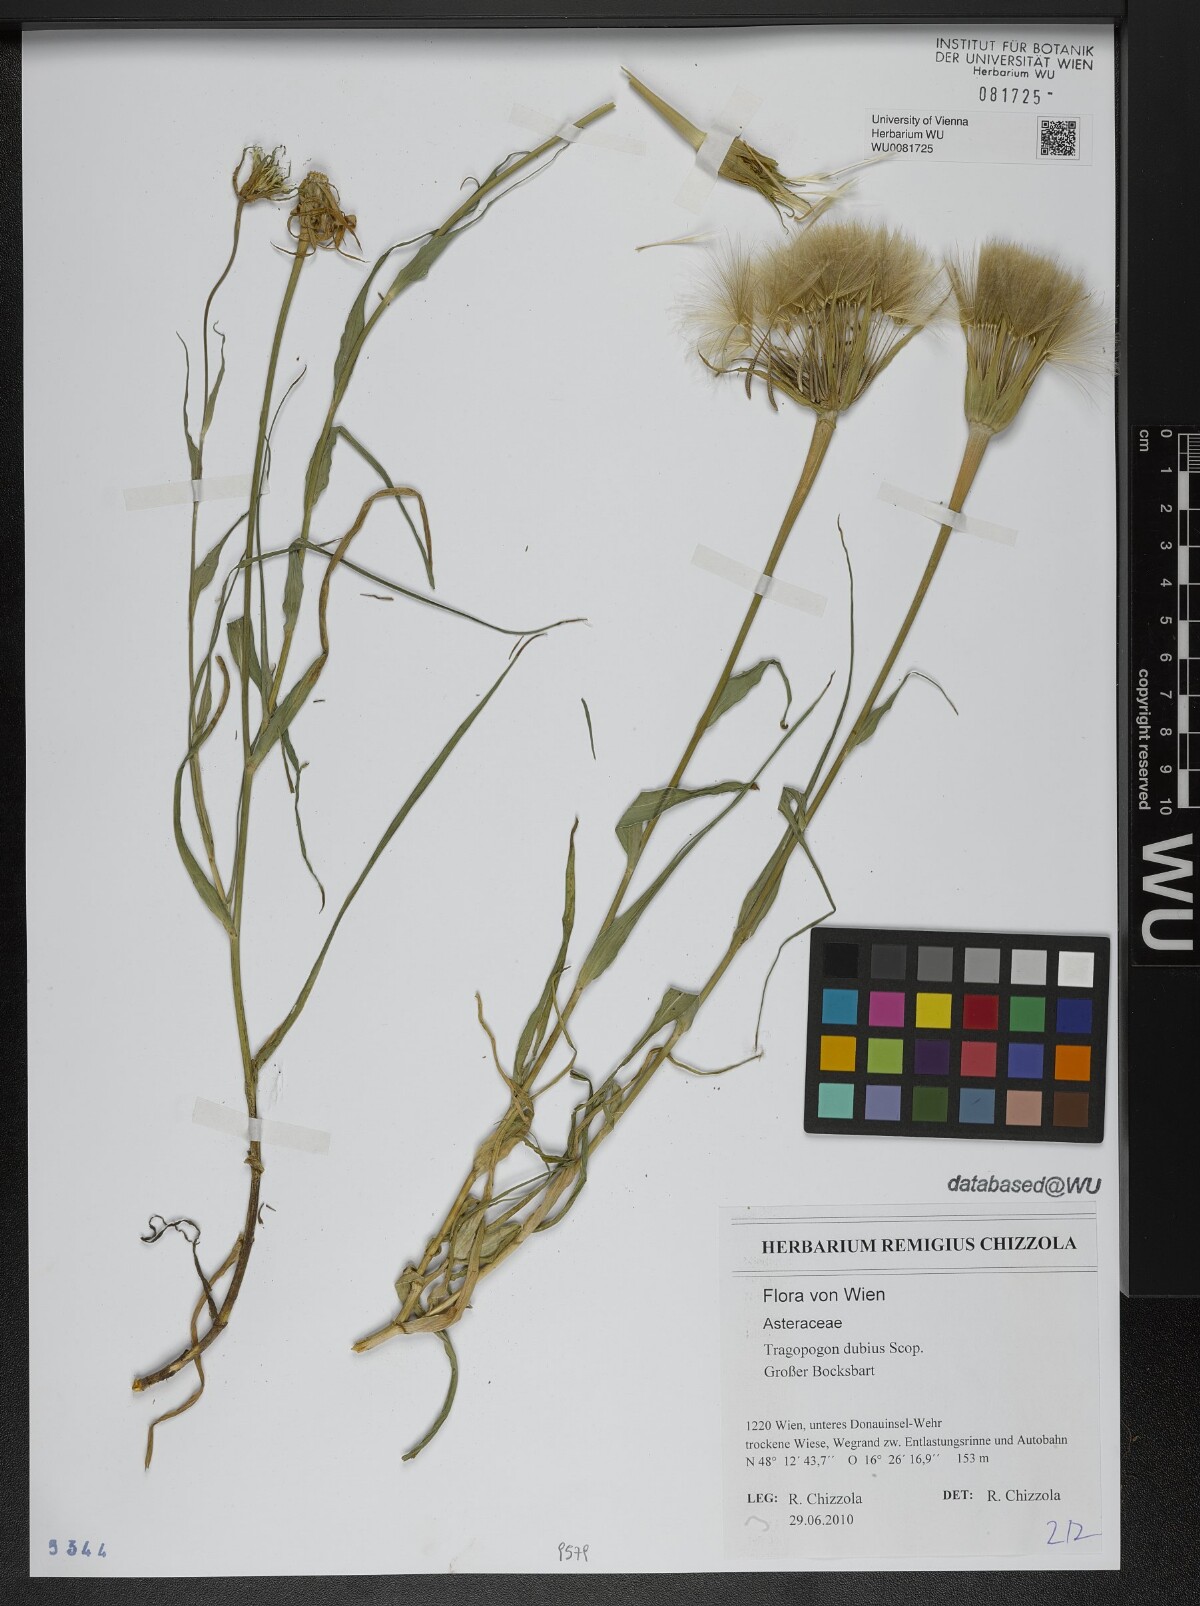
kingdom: Plantae
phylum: Tracheophyta
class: Magnoliopsida
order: Asterales
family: Asteraceae
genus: Tragopogon
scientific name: Tragopogon dubius
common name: Yellow salsify
